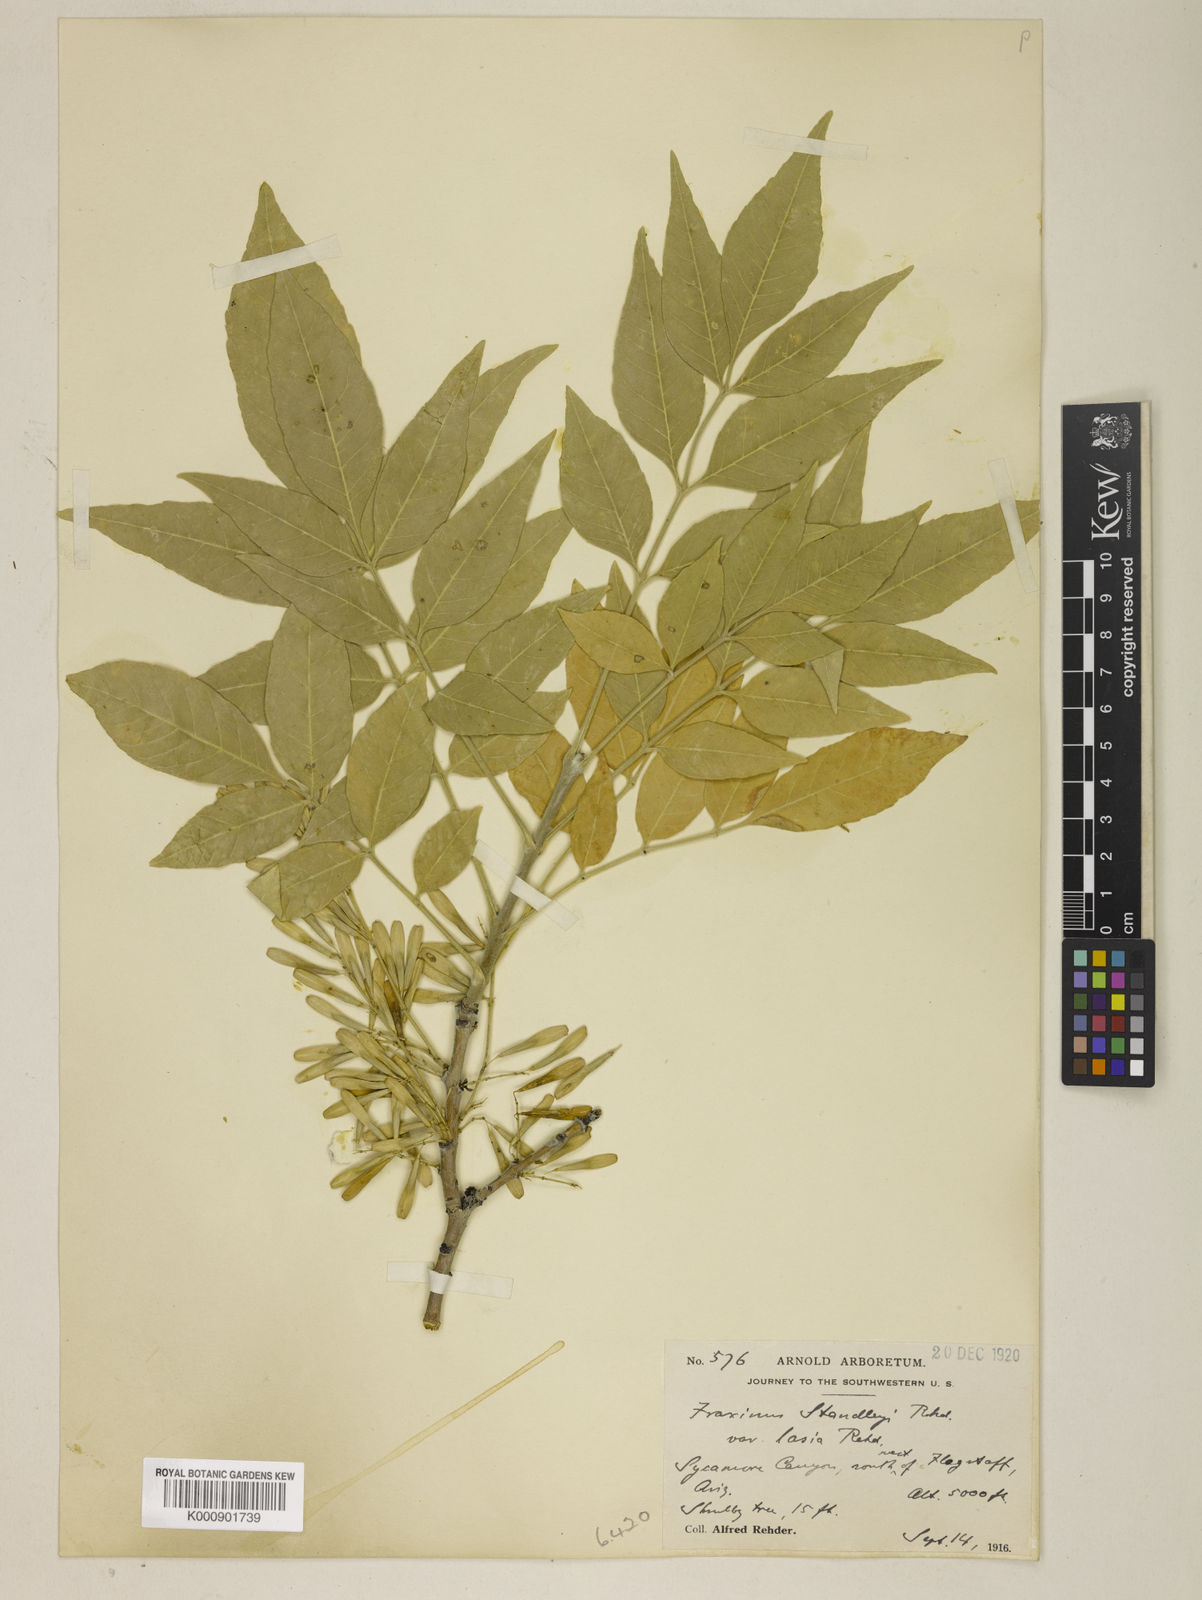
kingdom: Plantae
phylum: Tracheophyta
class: Magnoliopsida
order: Lamiales
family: Oleaceae
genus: Fraxinus
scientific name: Fraxinus pennsylvanica
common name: Green ash
